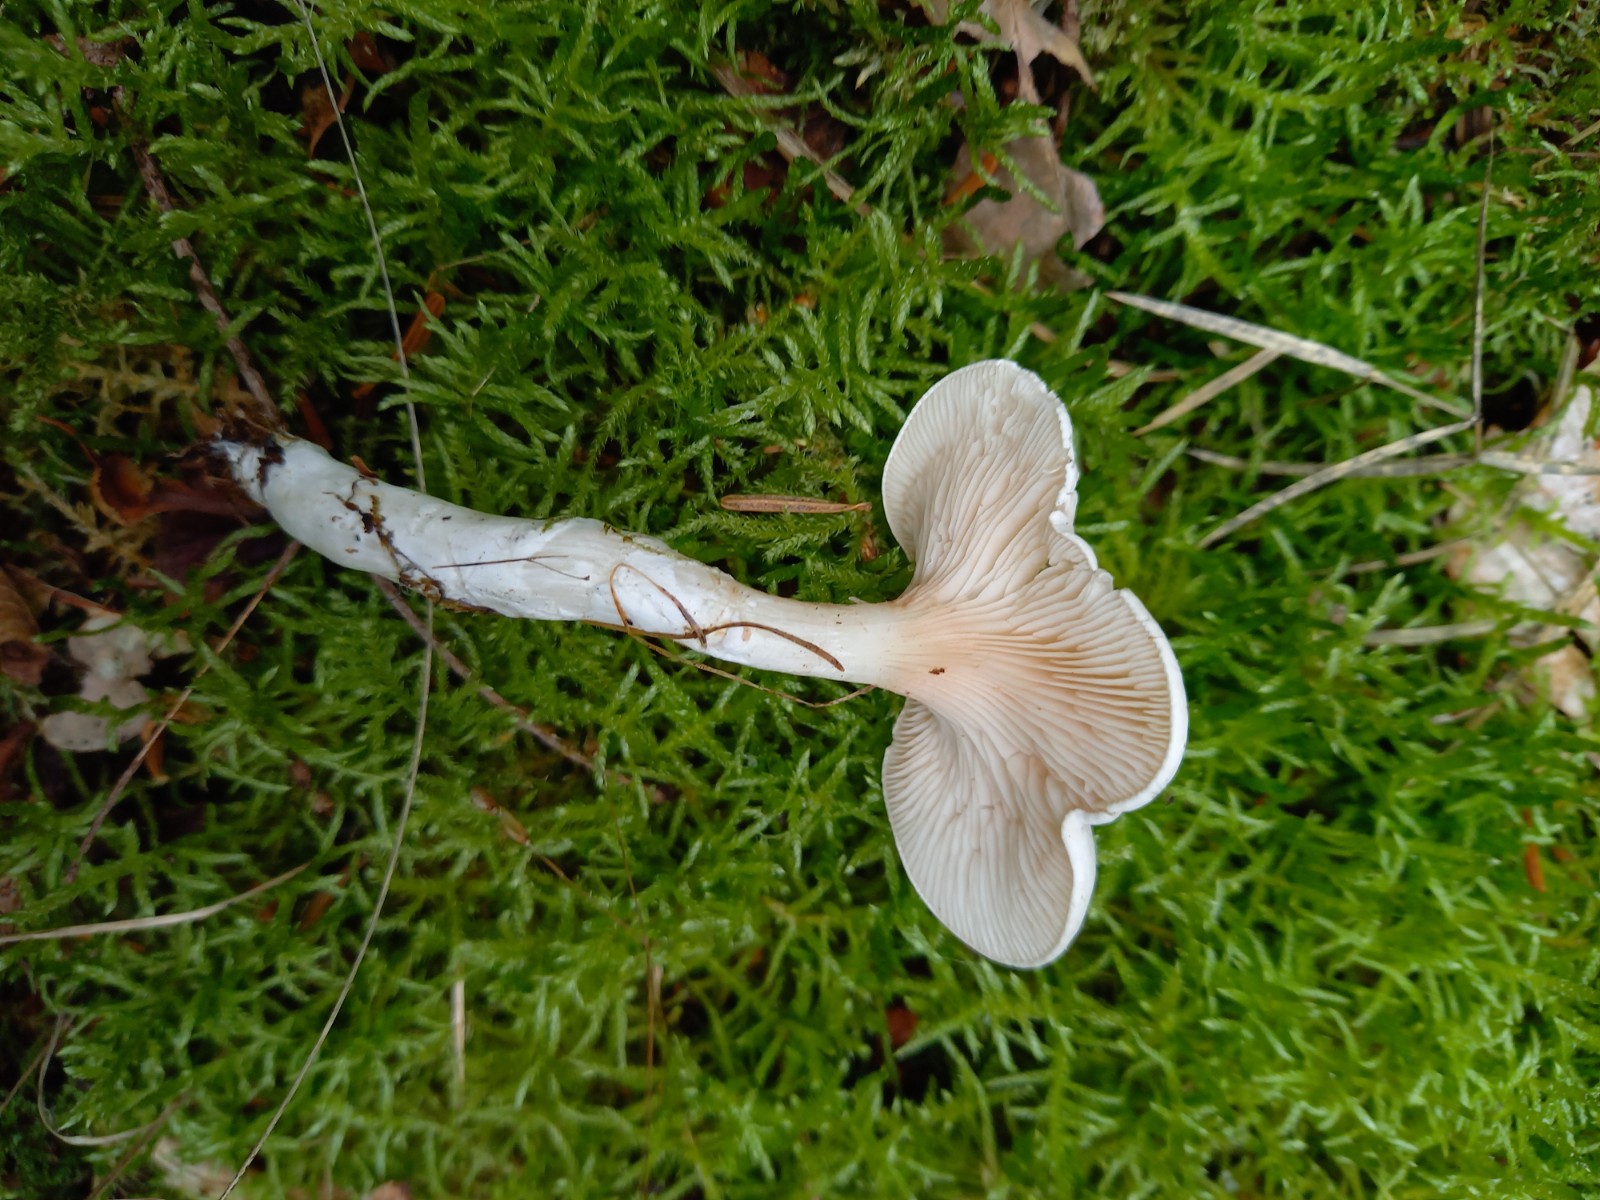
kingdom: Fungi
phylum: Basidiomycota
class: Agaricomycetes
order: Agaricales
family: Entolomataceae
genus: Clitopilus
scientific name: Clitopilus prunulus
